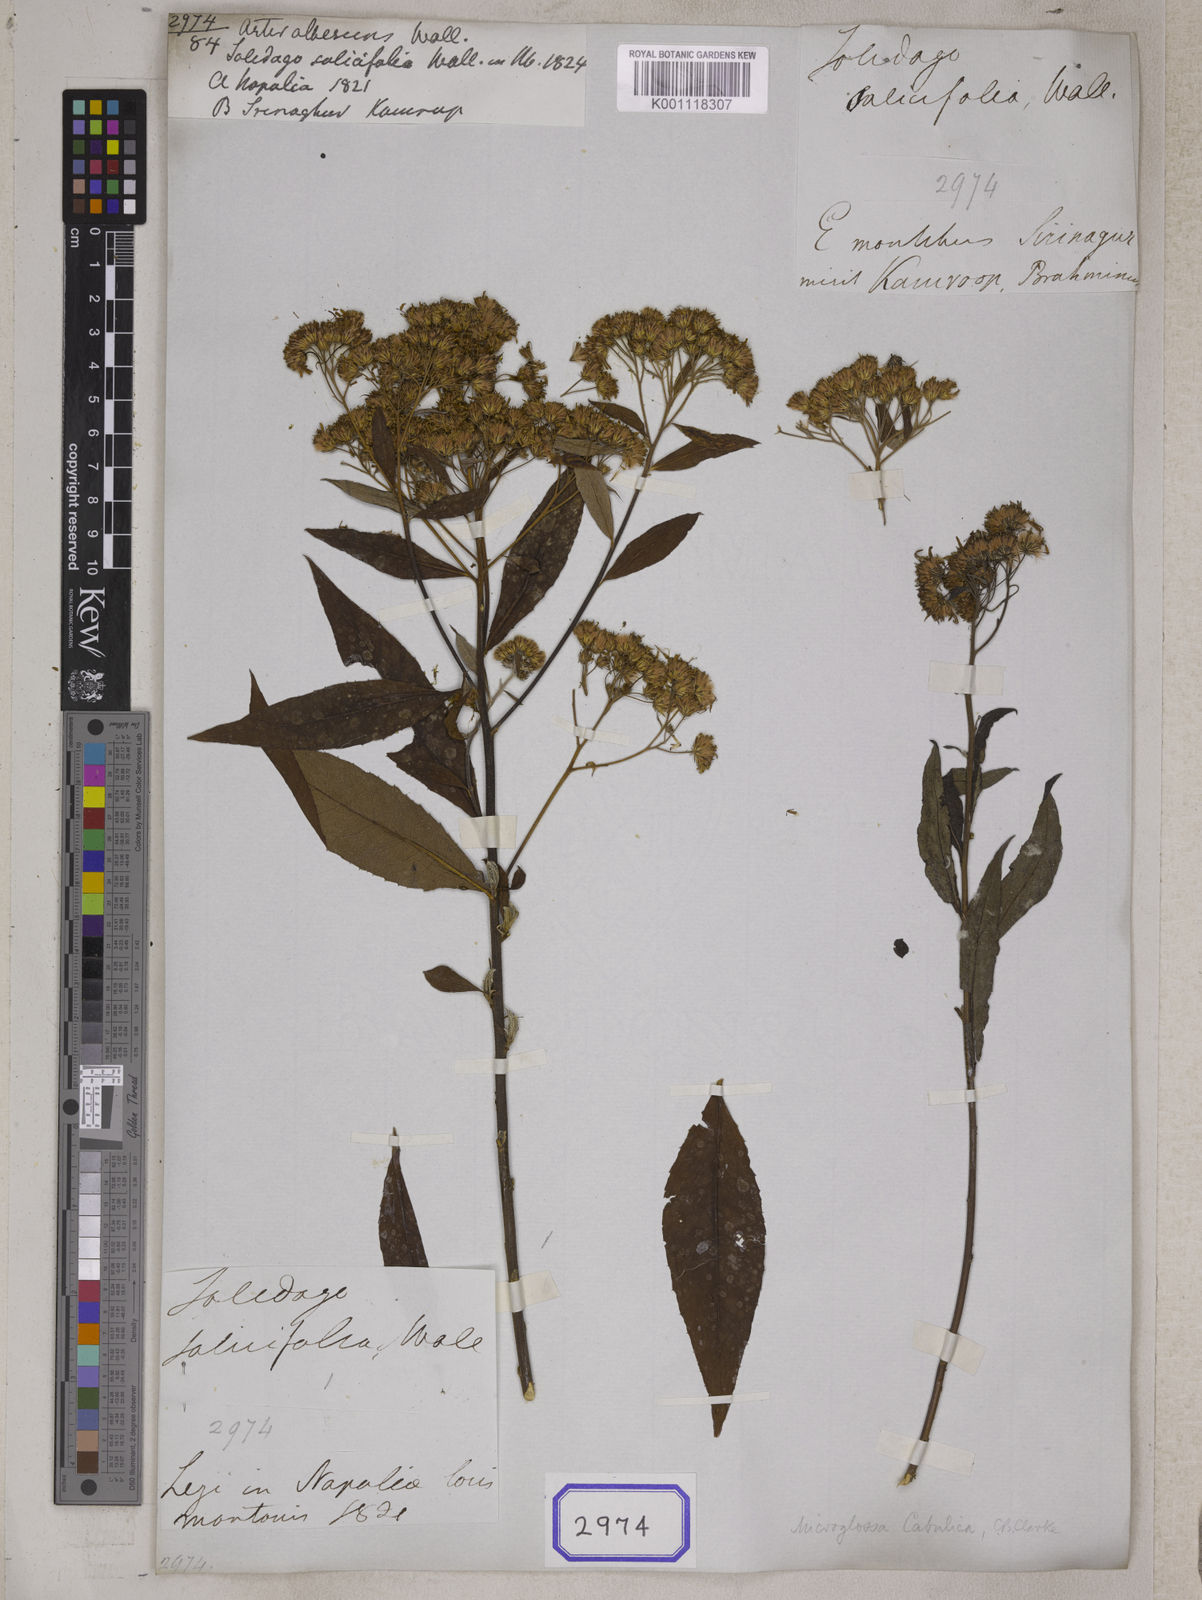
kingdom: Plantae
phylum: Tracheophyta
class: Magnoliopsida
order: Asterales
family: Asteraceae
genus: Aster
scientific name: Aster
